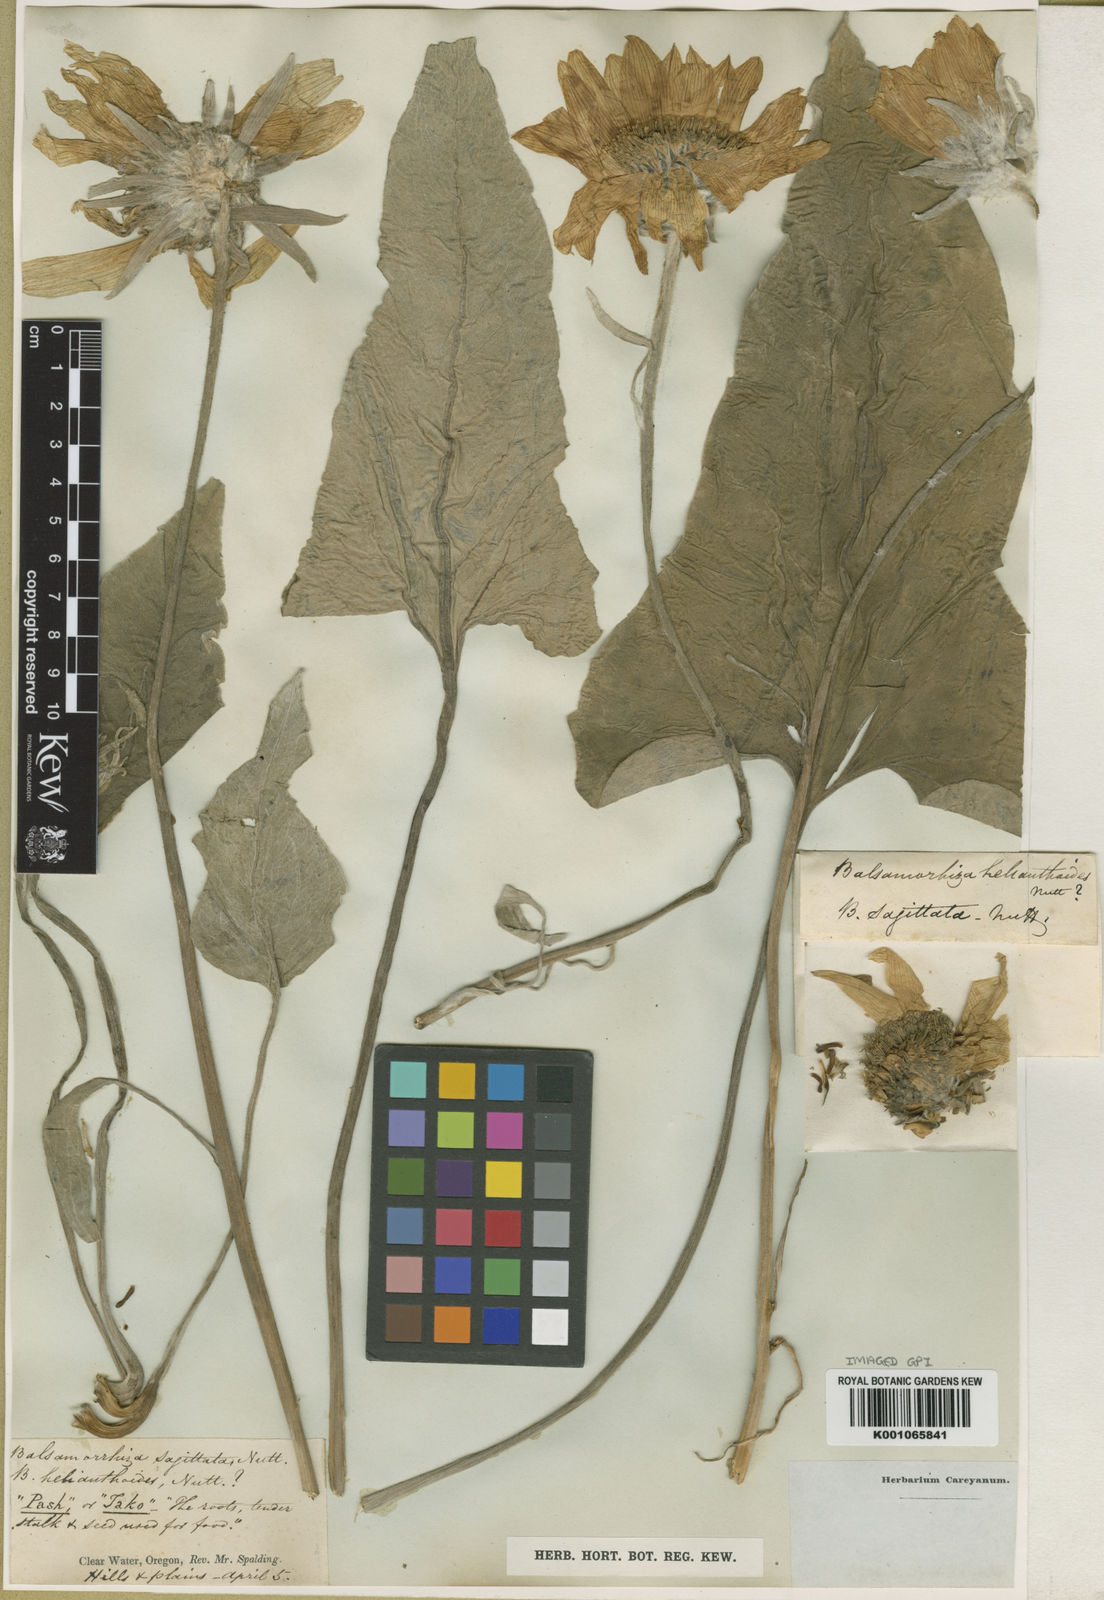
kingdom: Plantae
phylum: Tracheophyta
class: Magnoliopsida
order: Asterales
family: Asteraceae
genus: Balsamorhiza
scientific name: Balsamorhiza careyana
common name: Carey's balsamroot
